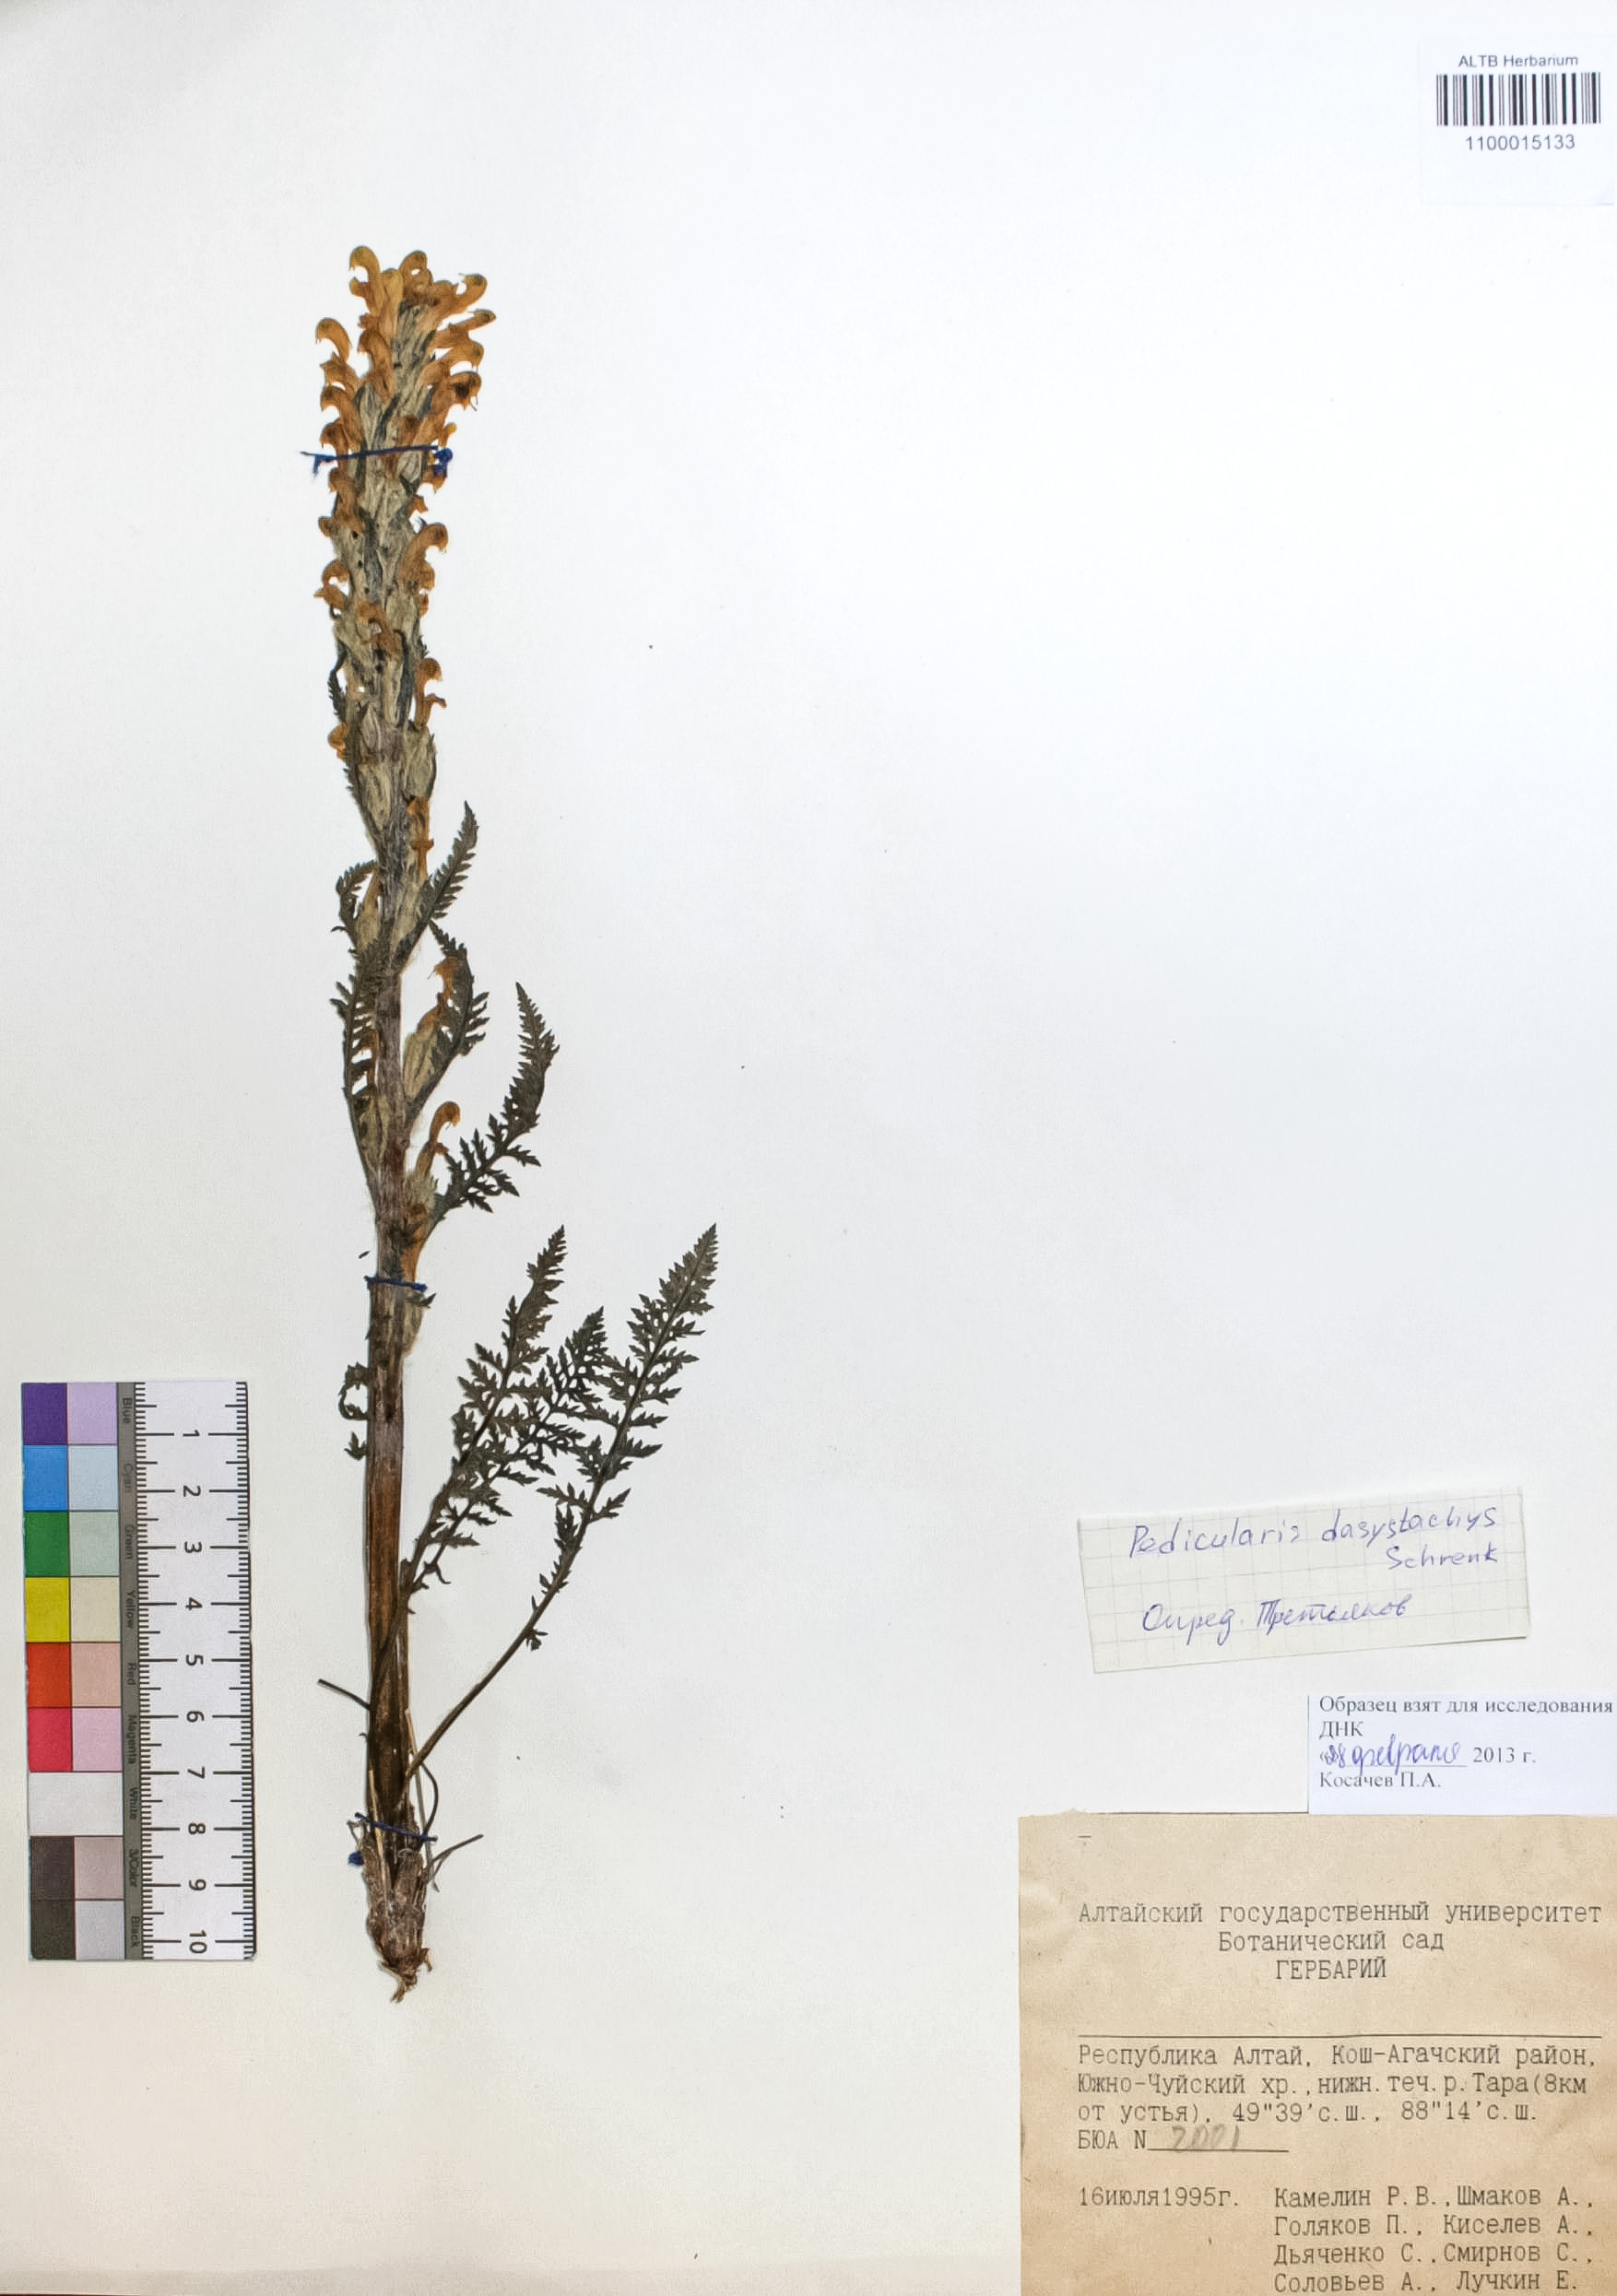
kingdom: Plantae
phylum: Tracheophyta
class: Magnoliopsida
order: Lamiales
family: Orobanchaceae
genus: Pedicularis
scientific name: Pedicularis dasystachys
